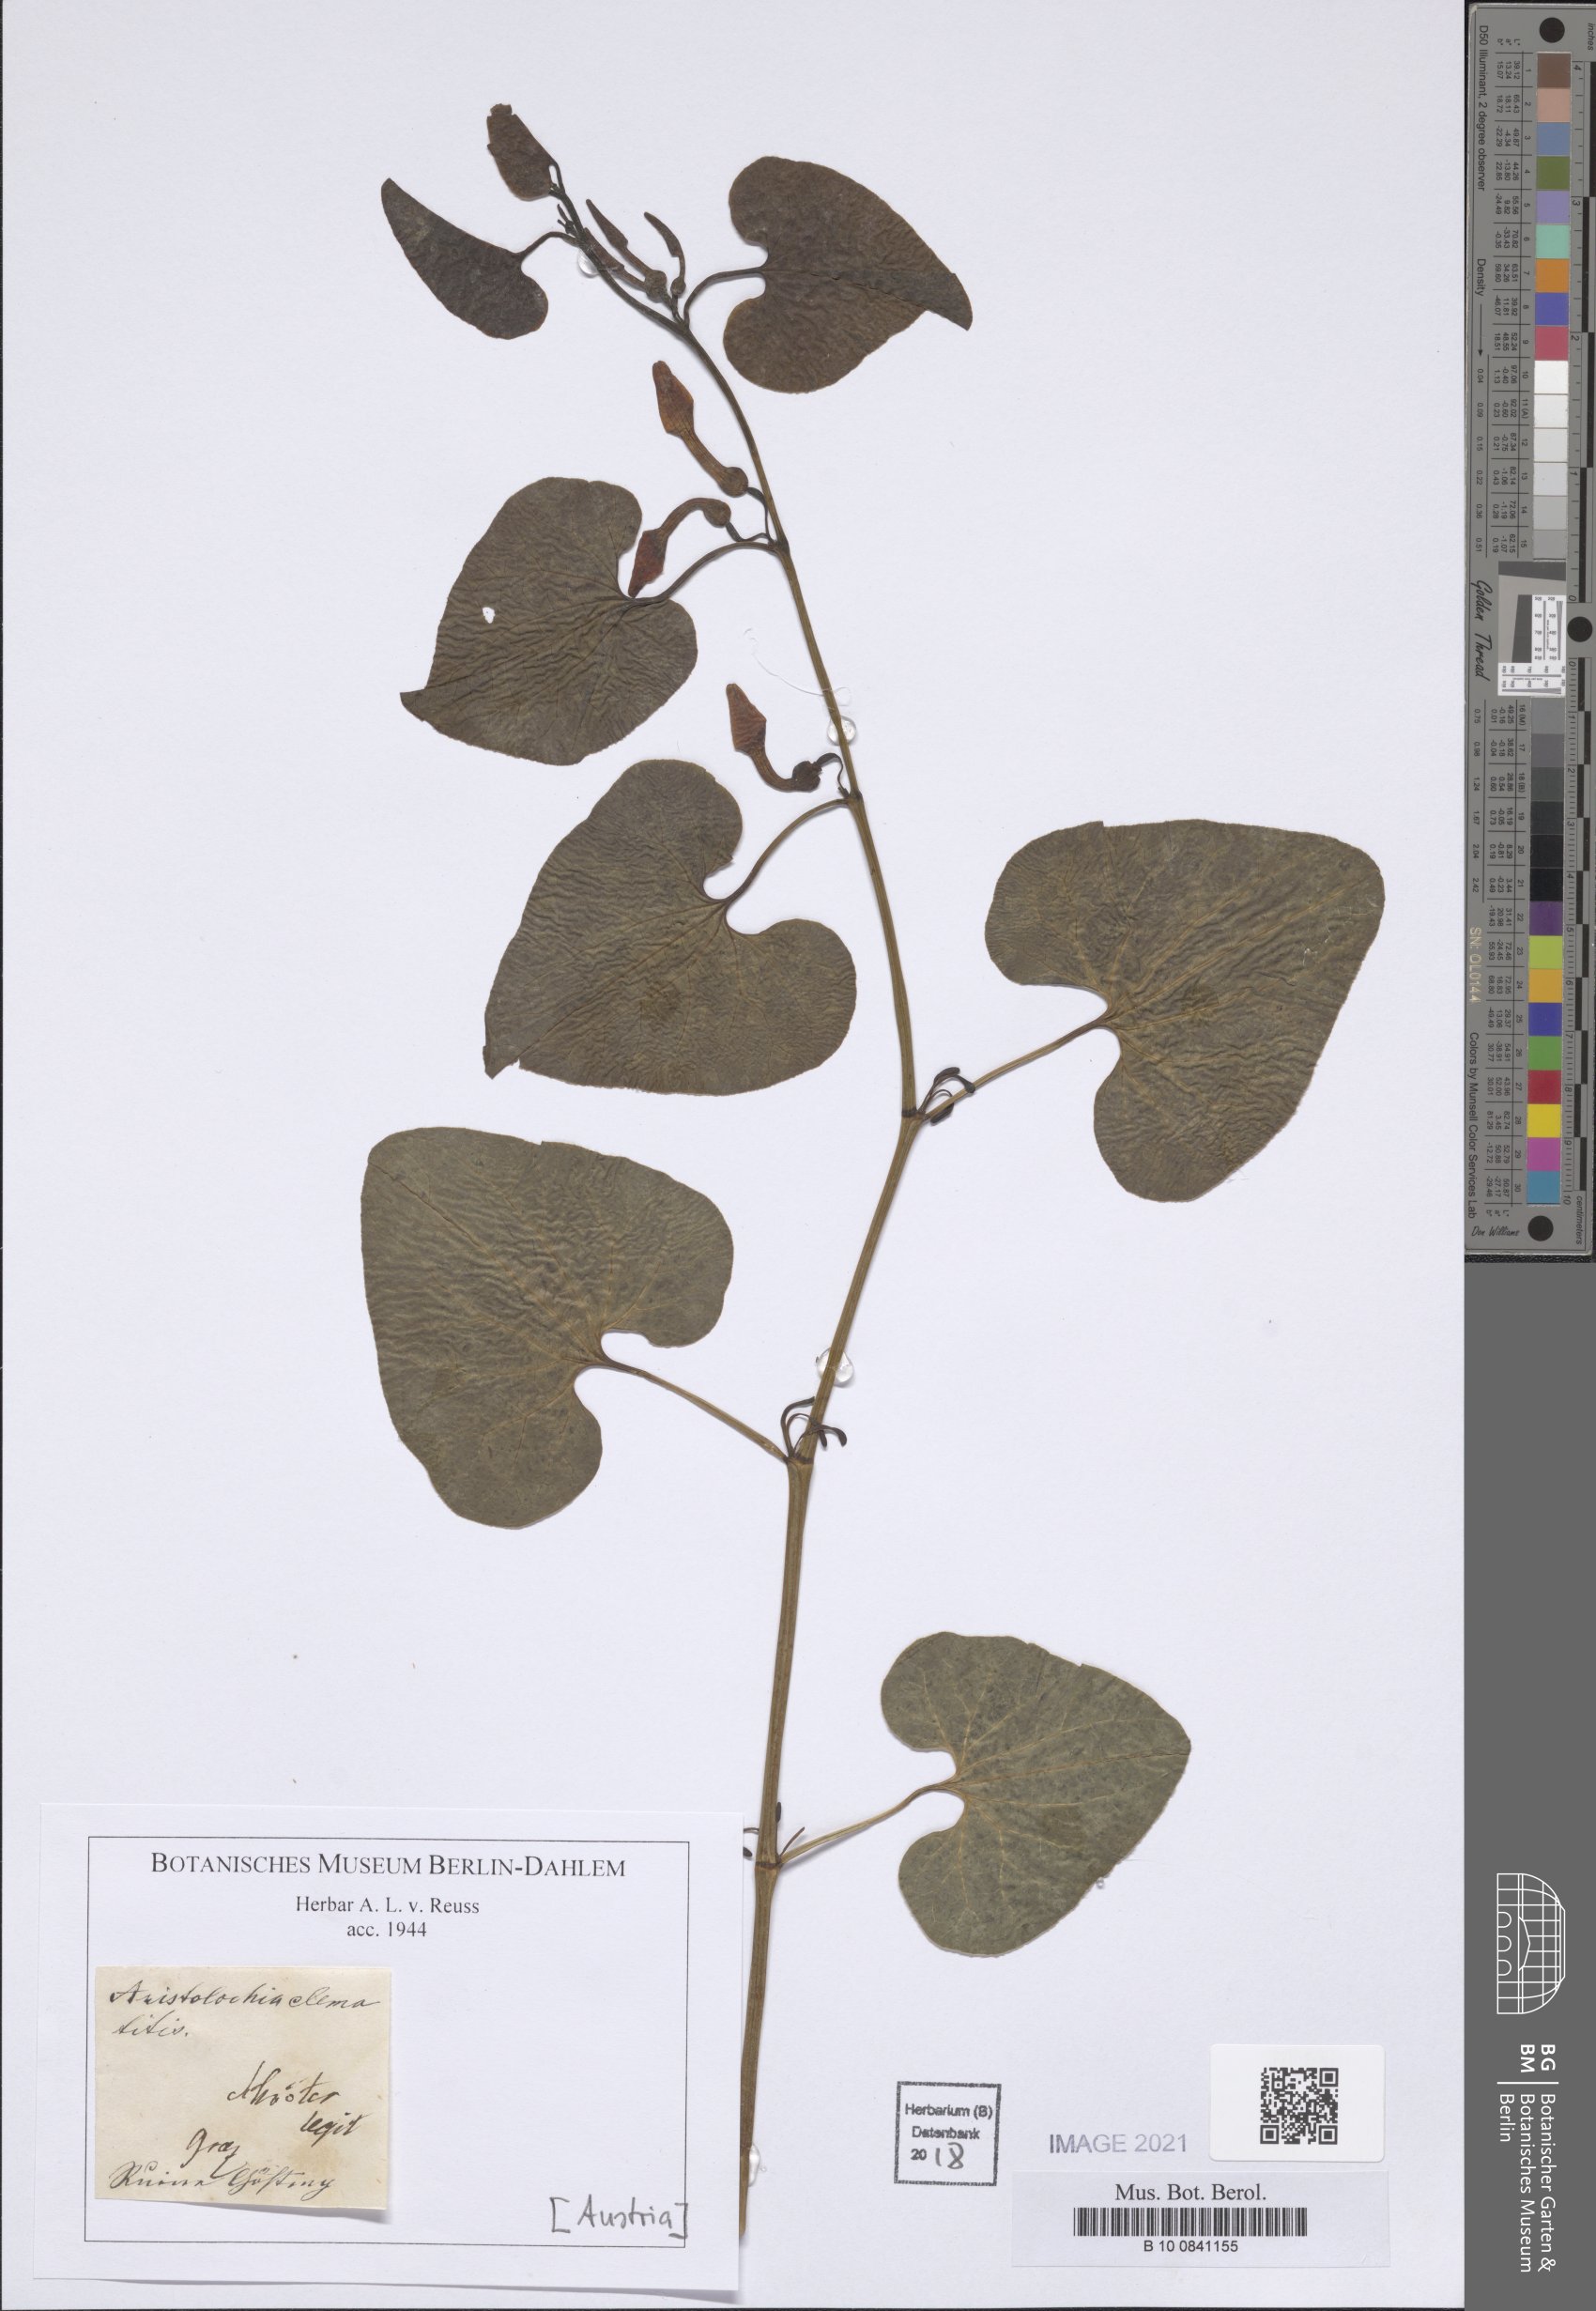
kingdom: Plantae
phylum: Tracheophyta
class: Magnoliopsida
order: Piperales
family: Aristolochiaceae
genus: Aristolochia
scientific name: Aristolochia clematitis
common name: Birthwort
